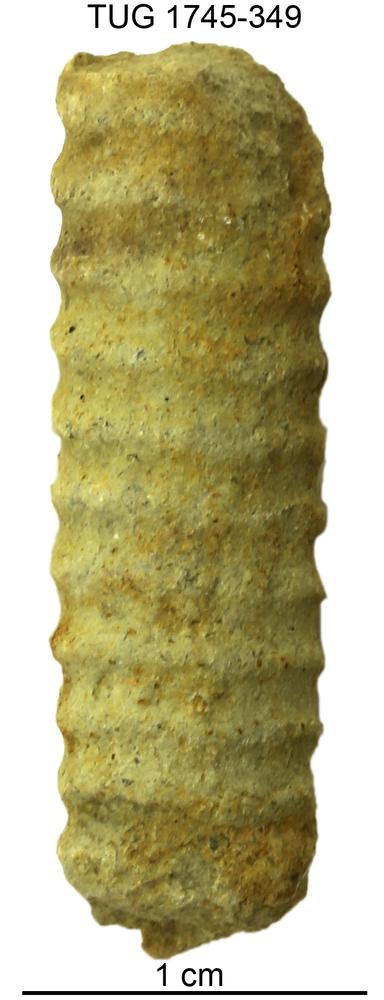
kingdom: Animalia
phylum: Mollusca
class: Cephalopoda
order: Orthocerida
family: Orthoceratidae
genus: Ctenoceras
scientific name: Ctenoceras
